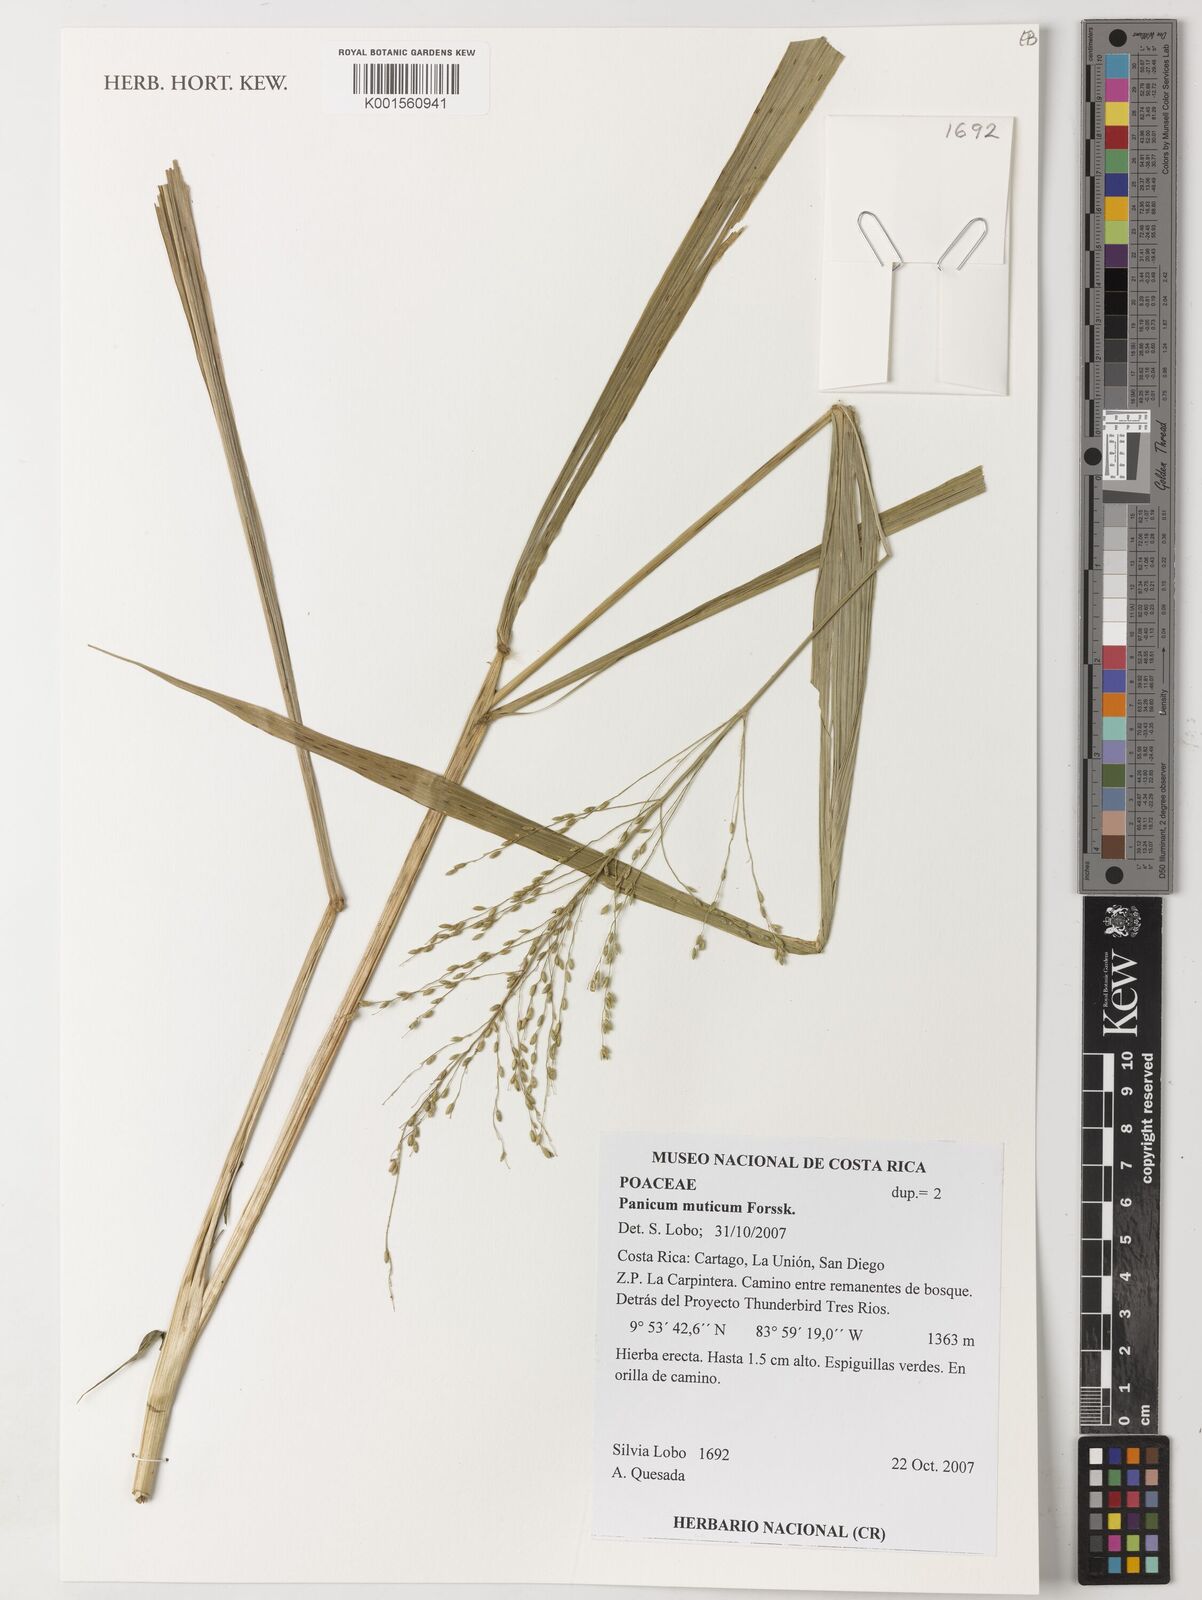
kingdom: Plantae
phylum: Tracheophyta
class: Liliopsida
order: Poales
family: Poaceae
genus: Urochloa
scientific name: Urochloa mutica
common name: Para grass
